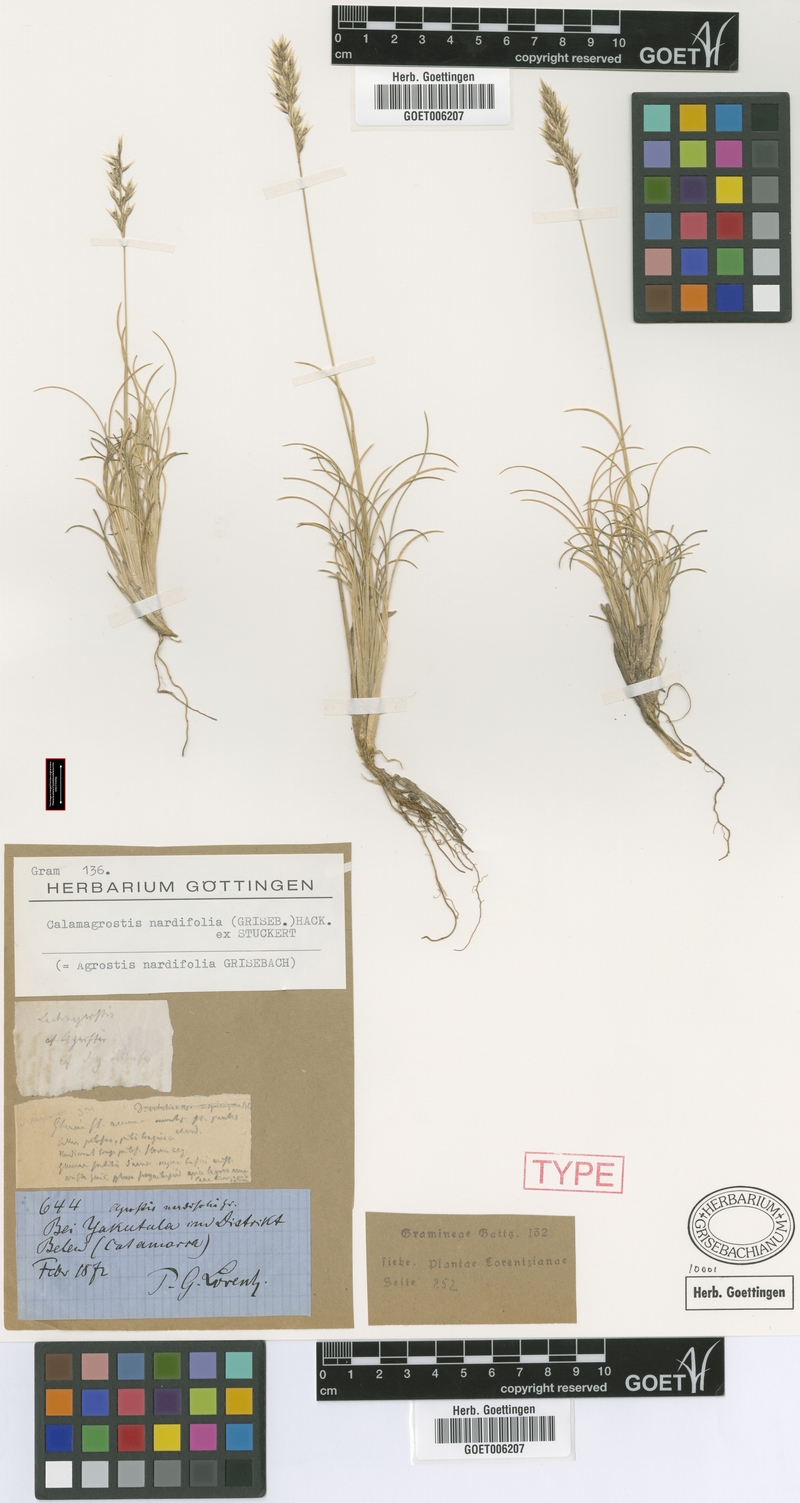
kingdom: Plantae
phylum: Tracheophyta
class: Liliopsida
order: Poales
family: Poaceae
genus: Cinnagrostis
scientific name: Cinnagrostis velutina
